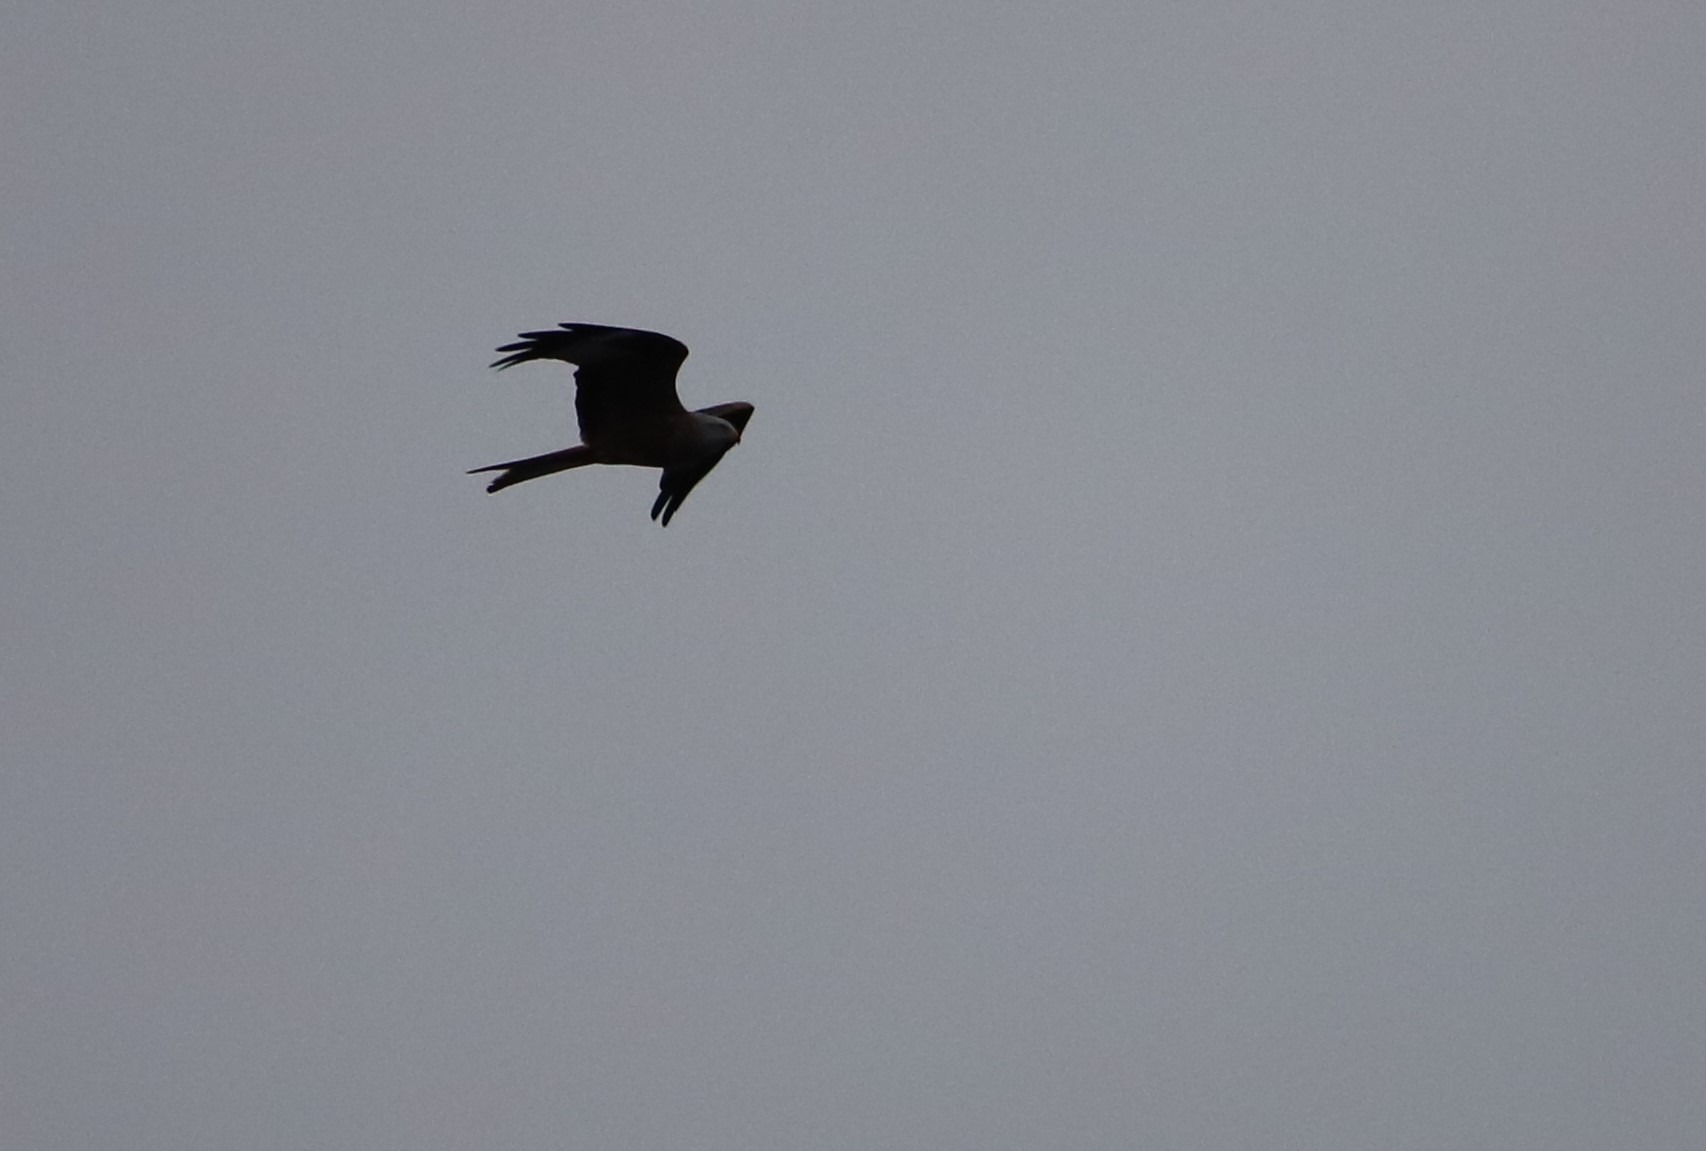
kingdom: Animalia
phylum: Chordata
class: Aves
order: Accipitriformes
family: Accipitridae
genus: Milvus
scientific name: Milvus milvus
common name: Rød glente
